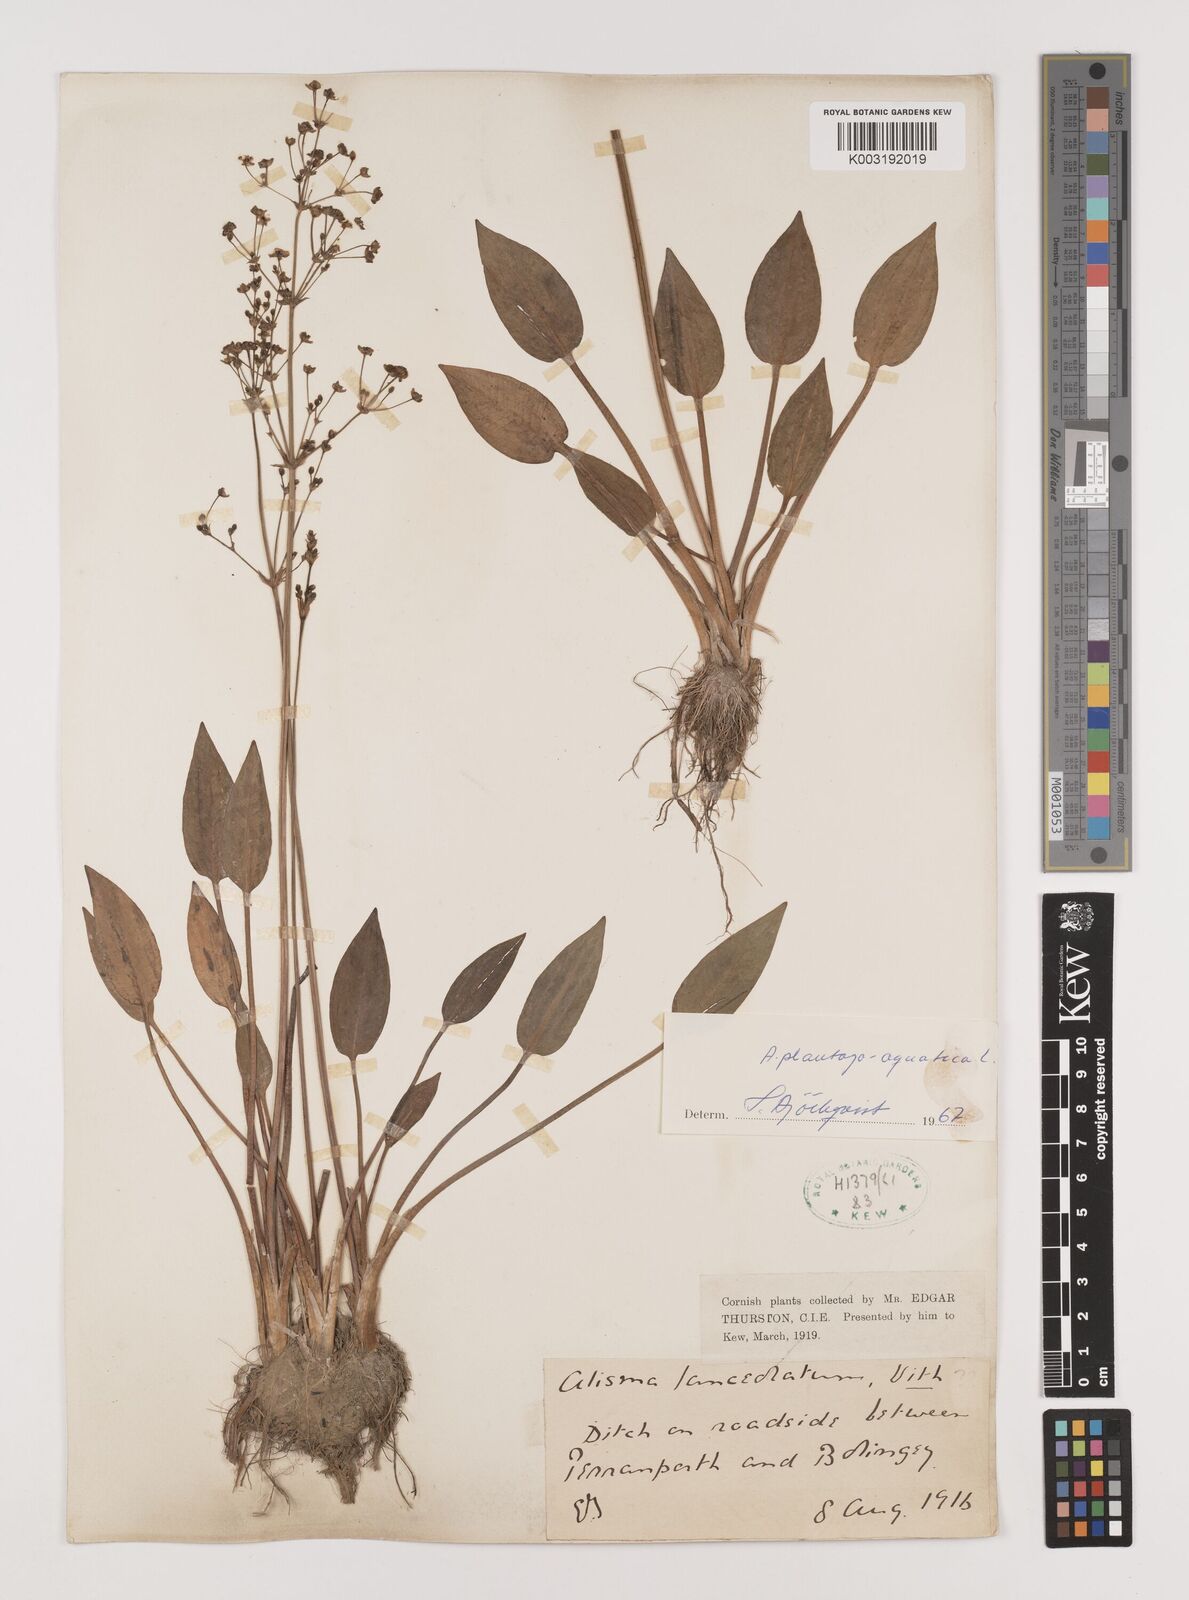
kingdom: Plantae
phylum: Tracheophyta
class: Liliopsida
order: Alismatales
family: Alismataceae
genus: Alisma
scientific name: Alisma plantago-aquatica
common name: Water-plantain
